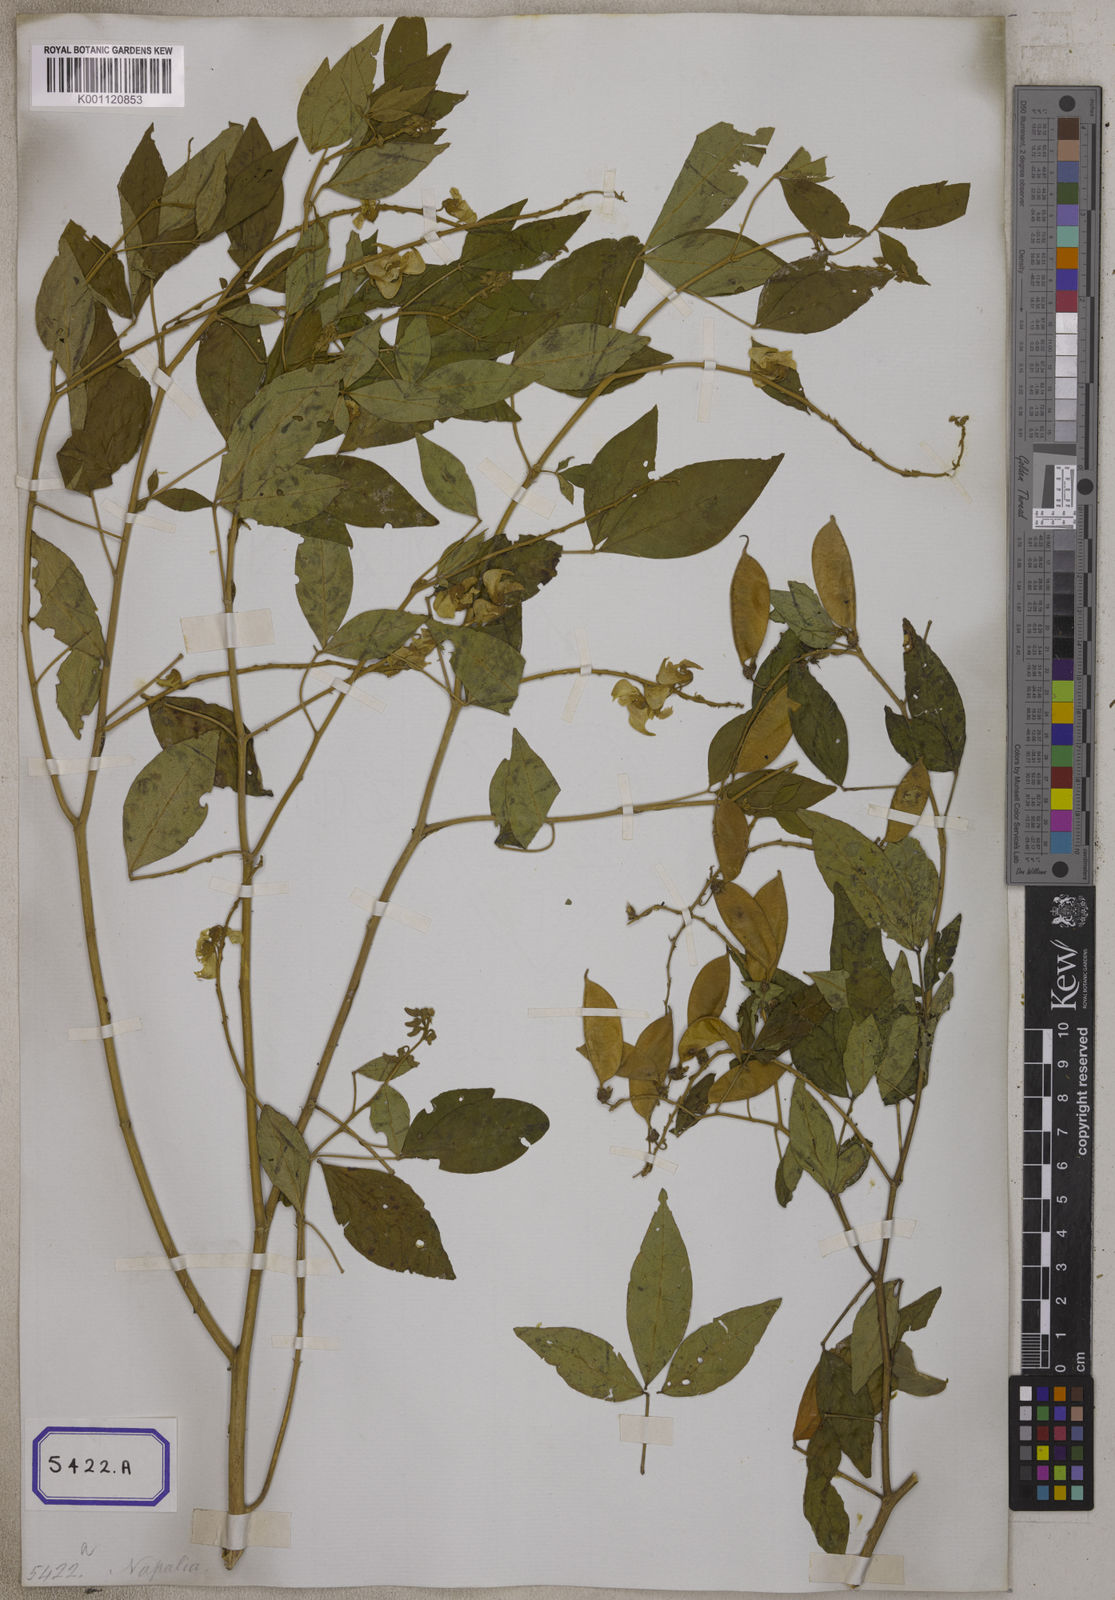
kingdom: Plantae
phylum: Tracheophyta
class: Magnoliopsida
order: Fabales
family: Fabaceae
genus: Crotalaria
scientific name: Crotalaria
